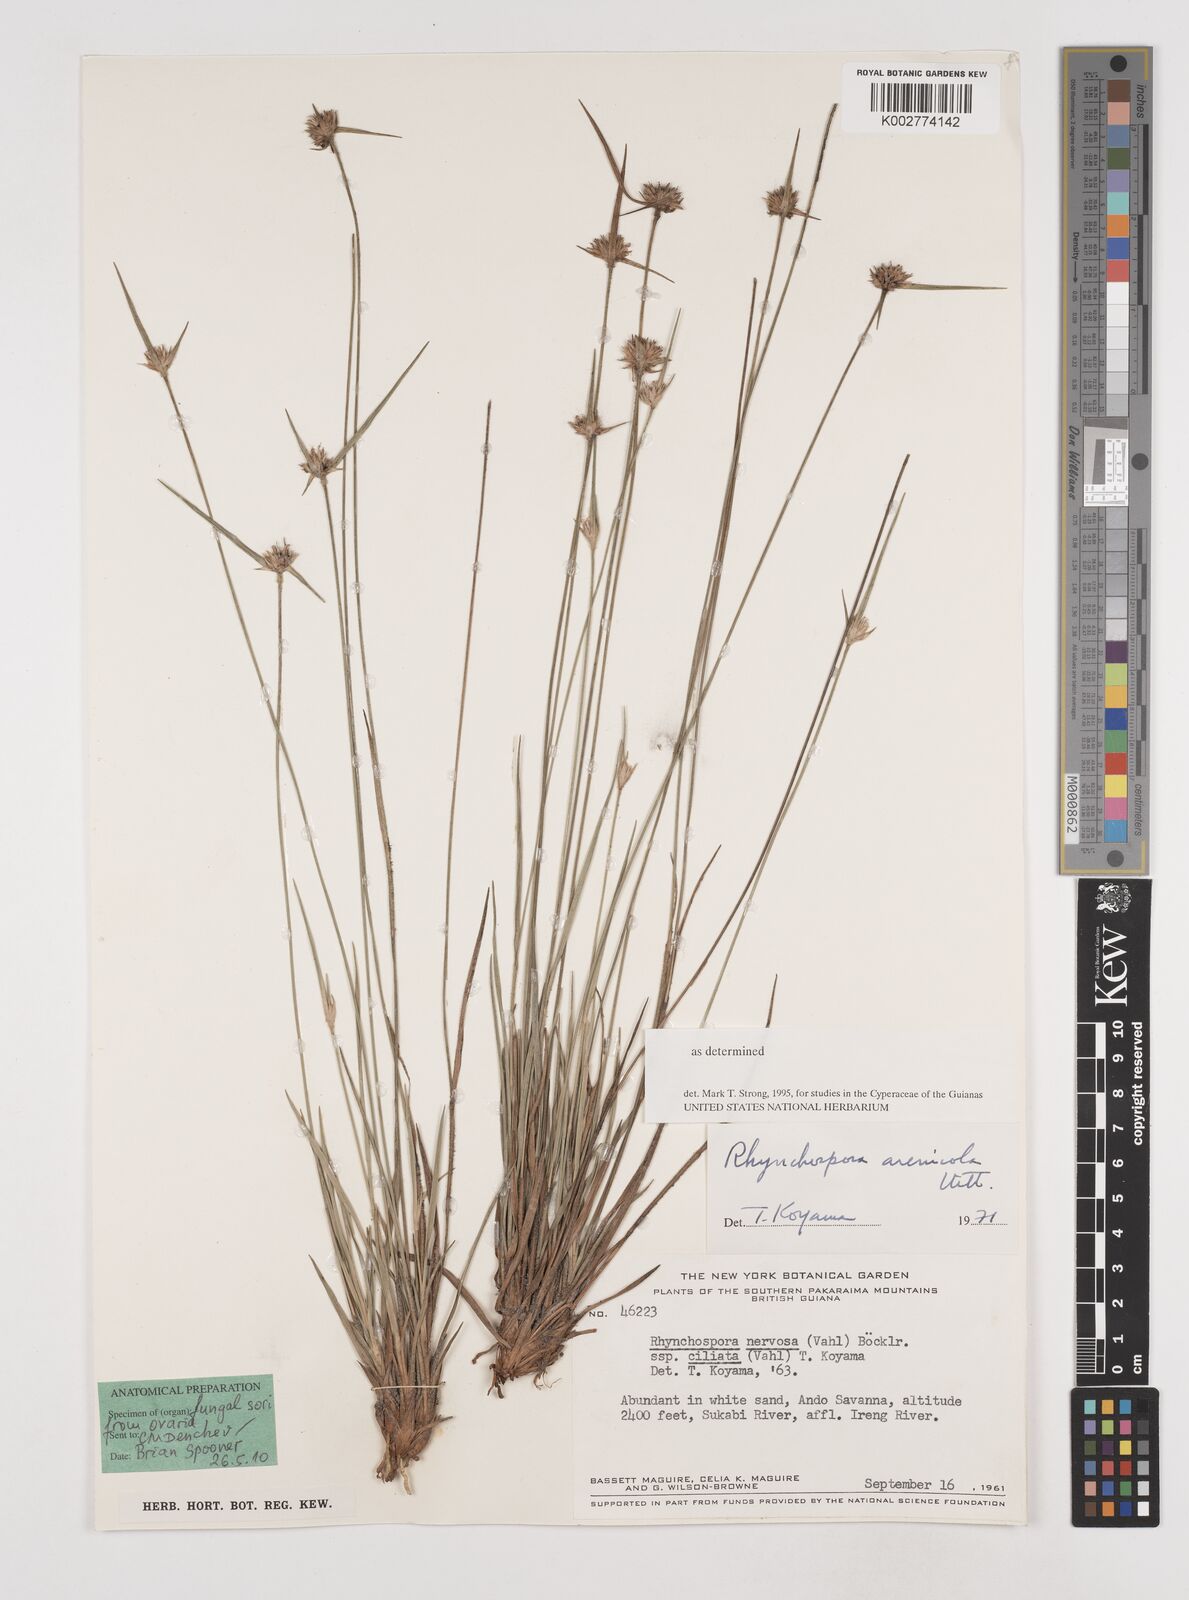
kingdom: Plantae
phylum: Tracheophyta
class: Liliopsida
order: Poales
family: Cyperaceae
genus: Rhynchospora
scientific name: Rhynchospora arenicola
